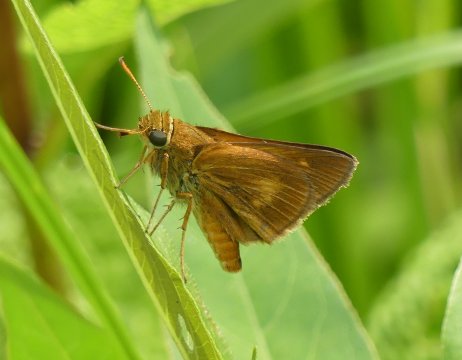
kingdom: Animalia
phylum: Arthropoda
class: Insecta
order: Lepidoptera
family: Hesperiidae
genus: Euphyes
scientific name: Euphyes conspicua
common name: Black Dash
